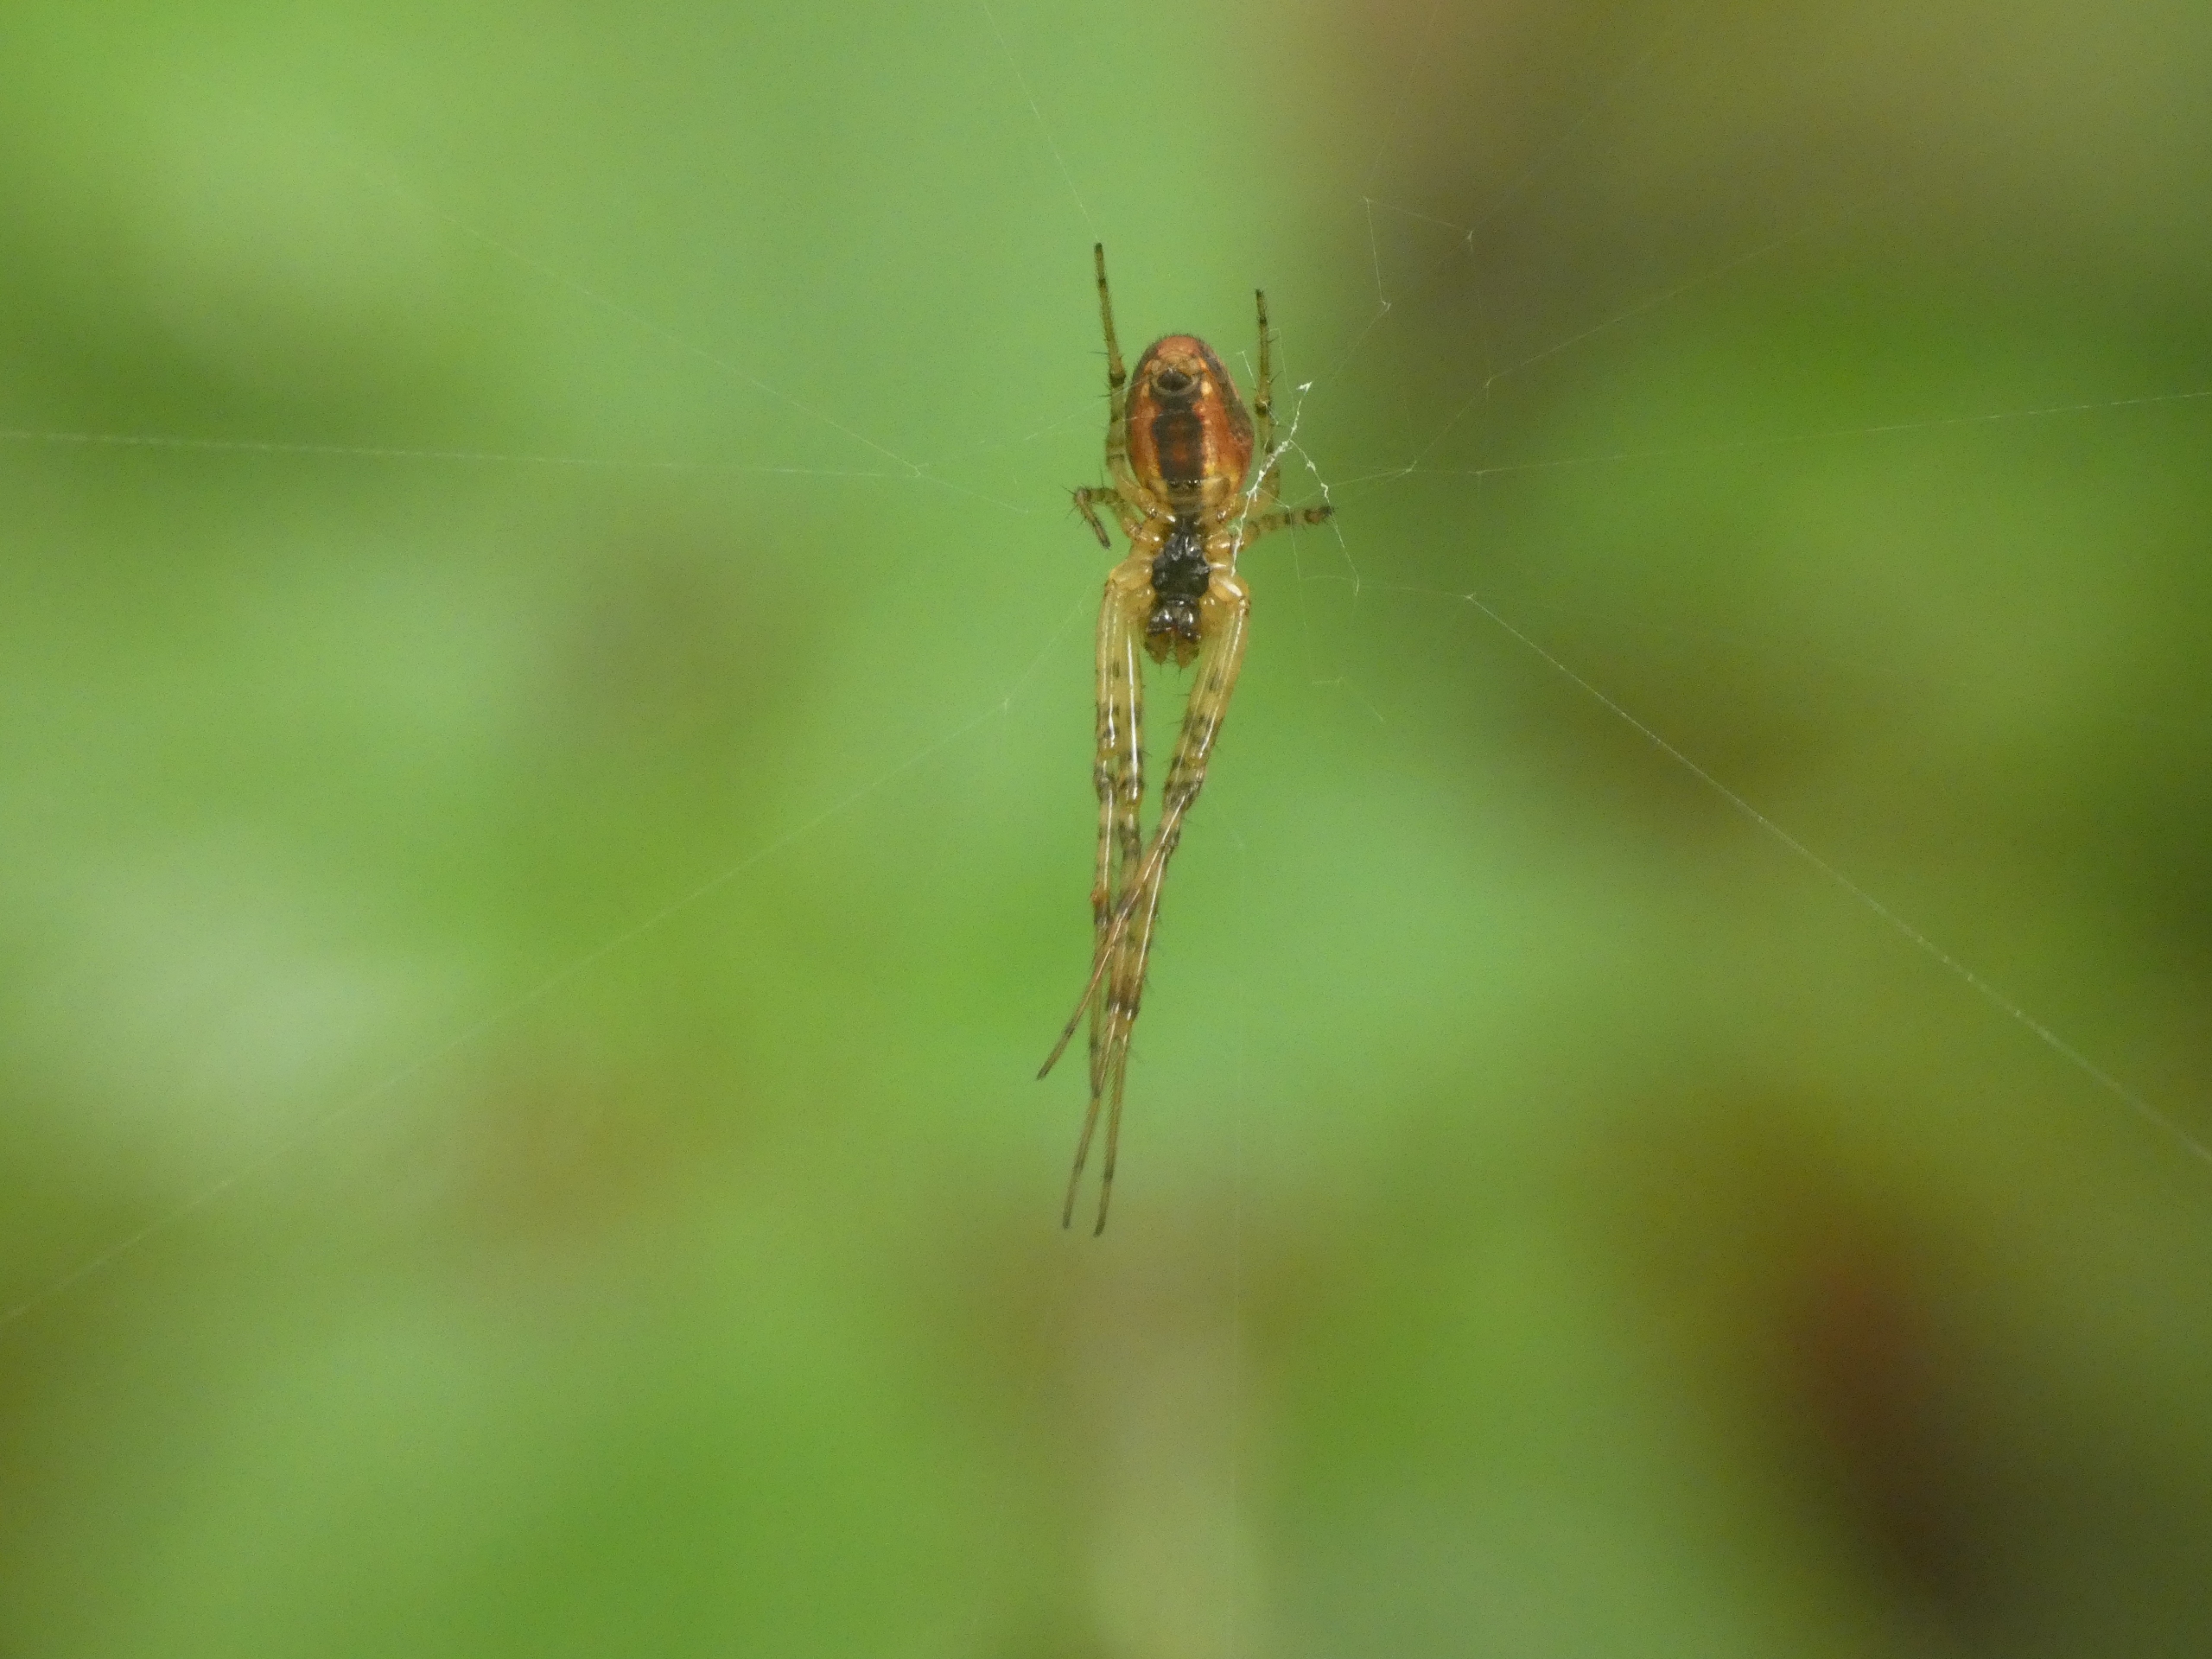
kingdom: Animalia
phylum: Arthropoda
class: Arachnida
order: Araneae
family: Tetragnathidae
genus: Metellina
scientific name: Metellina
